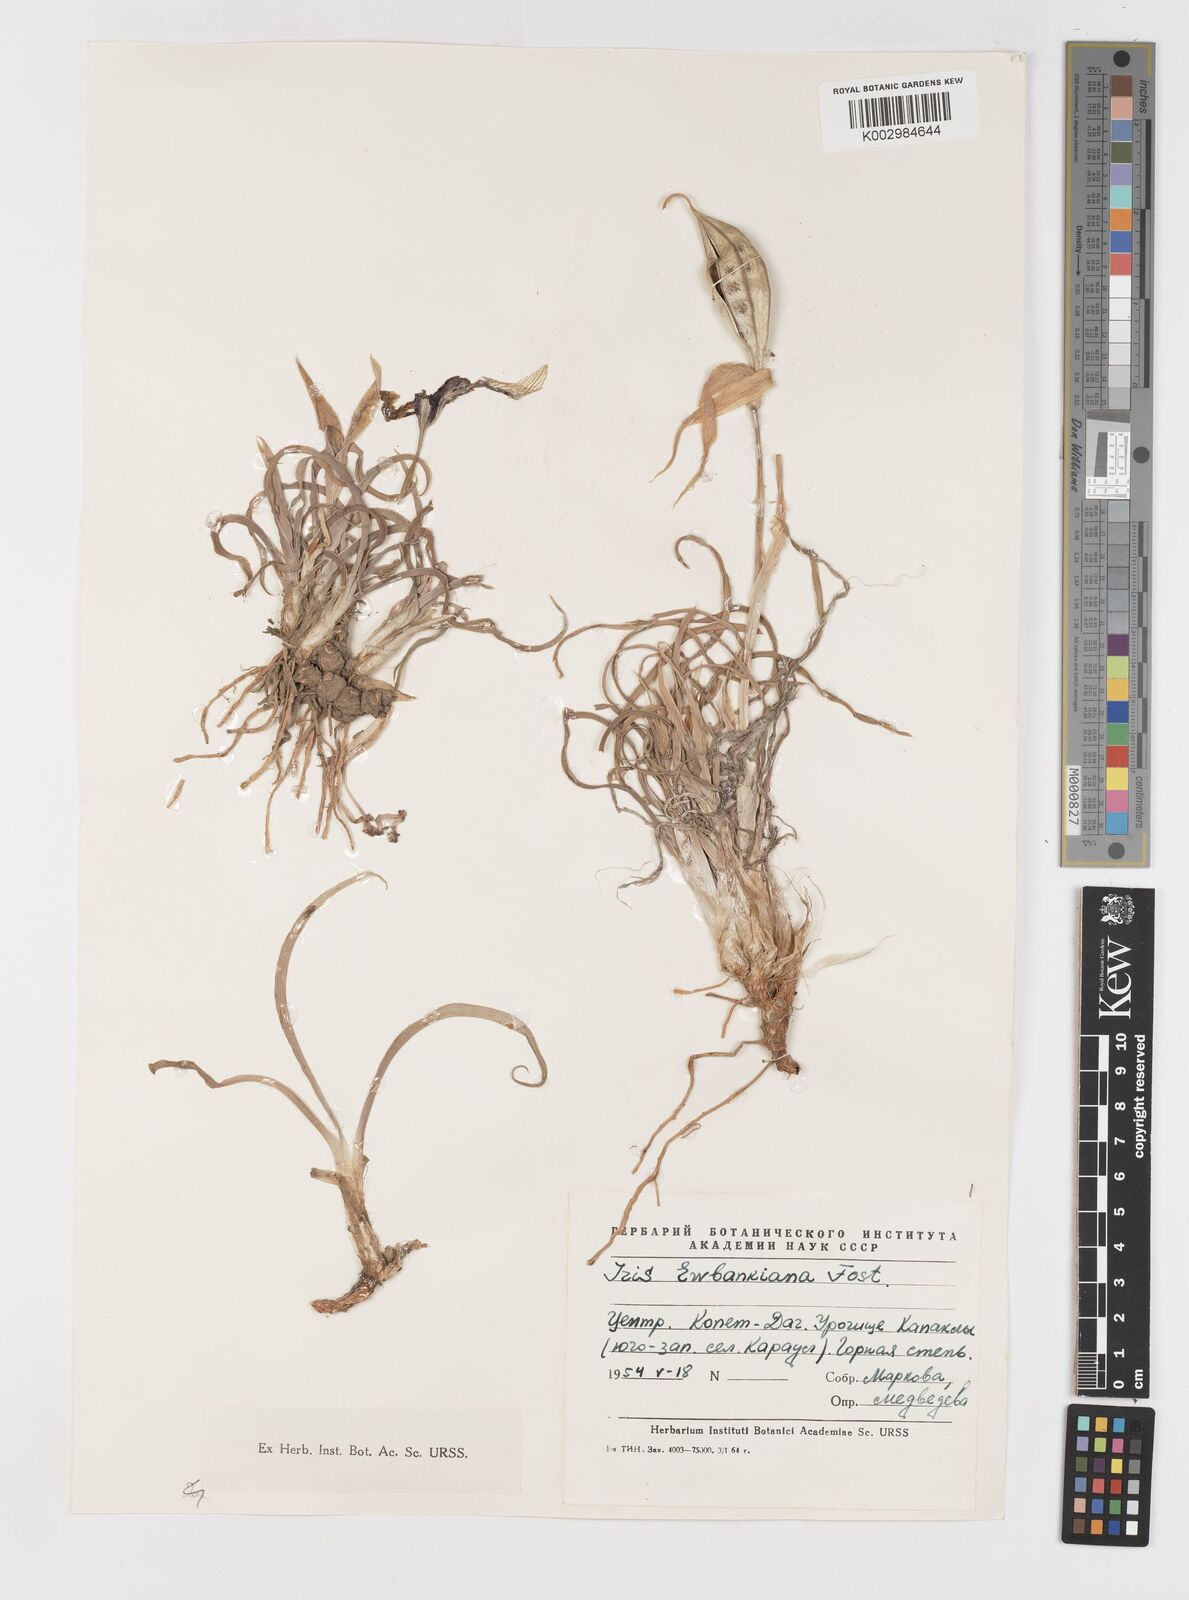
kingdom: Plantae
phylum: Tracheophyta
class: Liliopsida
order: Asparagales
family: Iridaceae
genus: Iris
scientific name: Iris acutiloba
